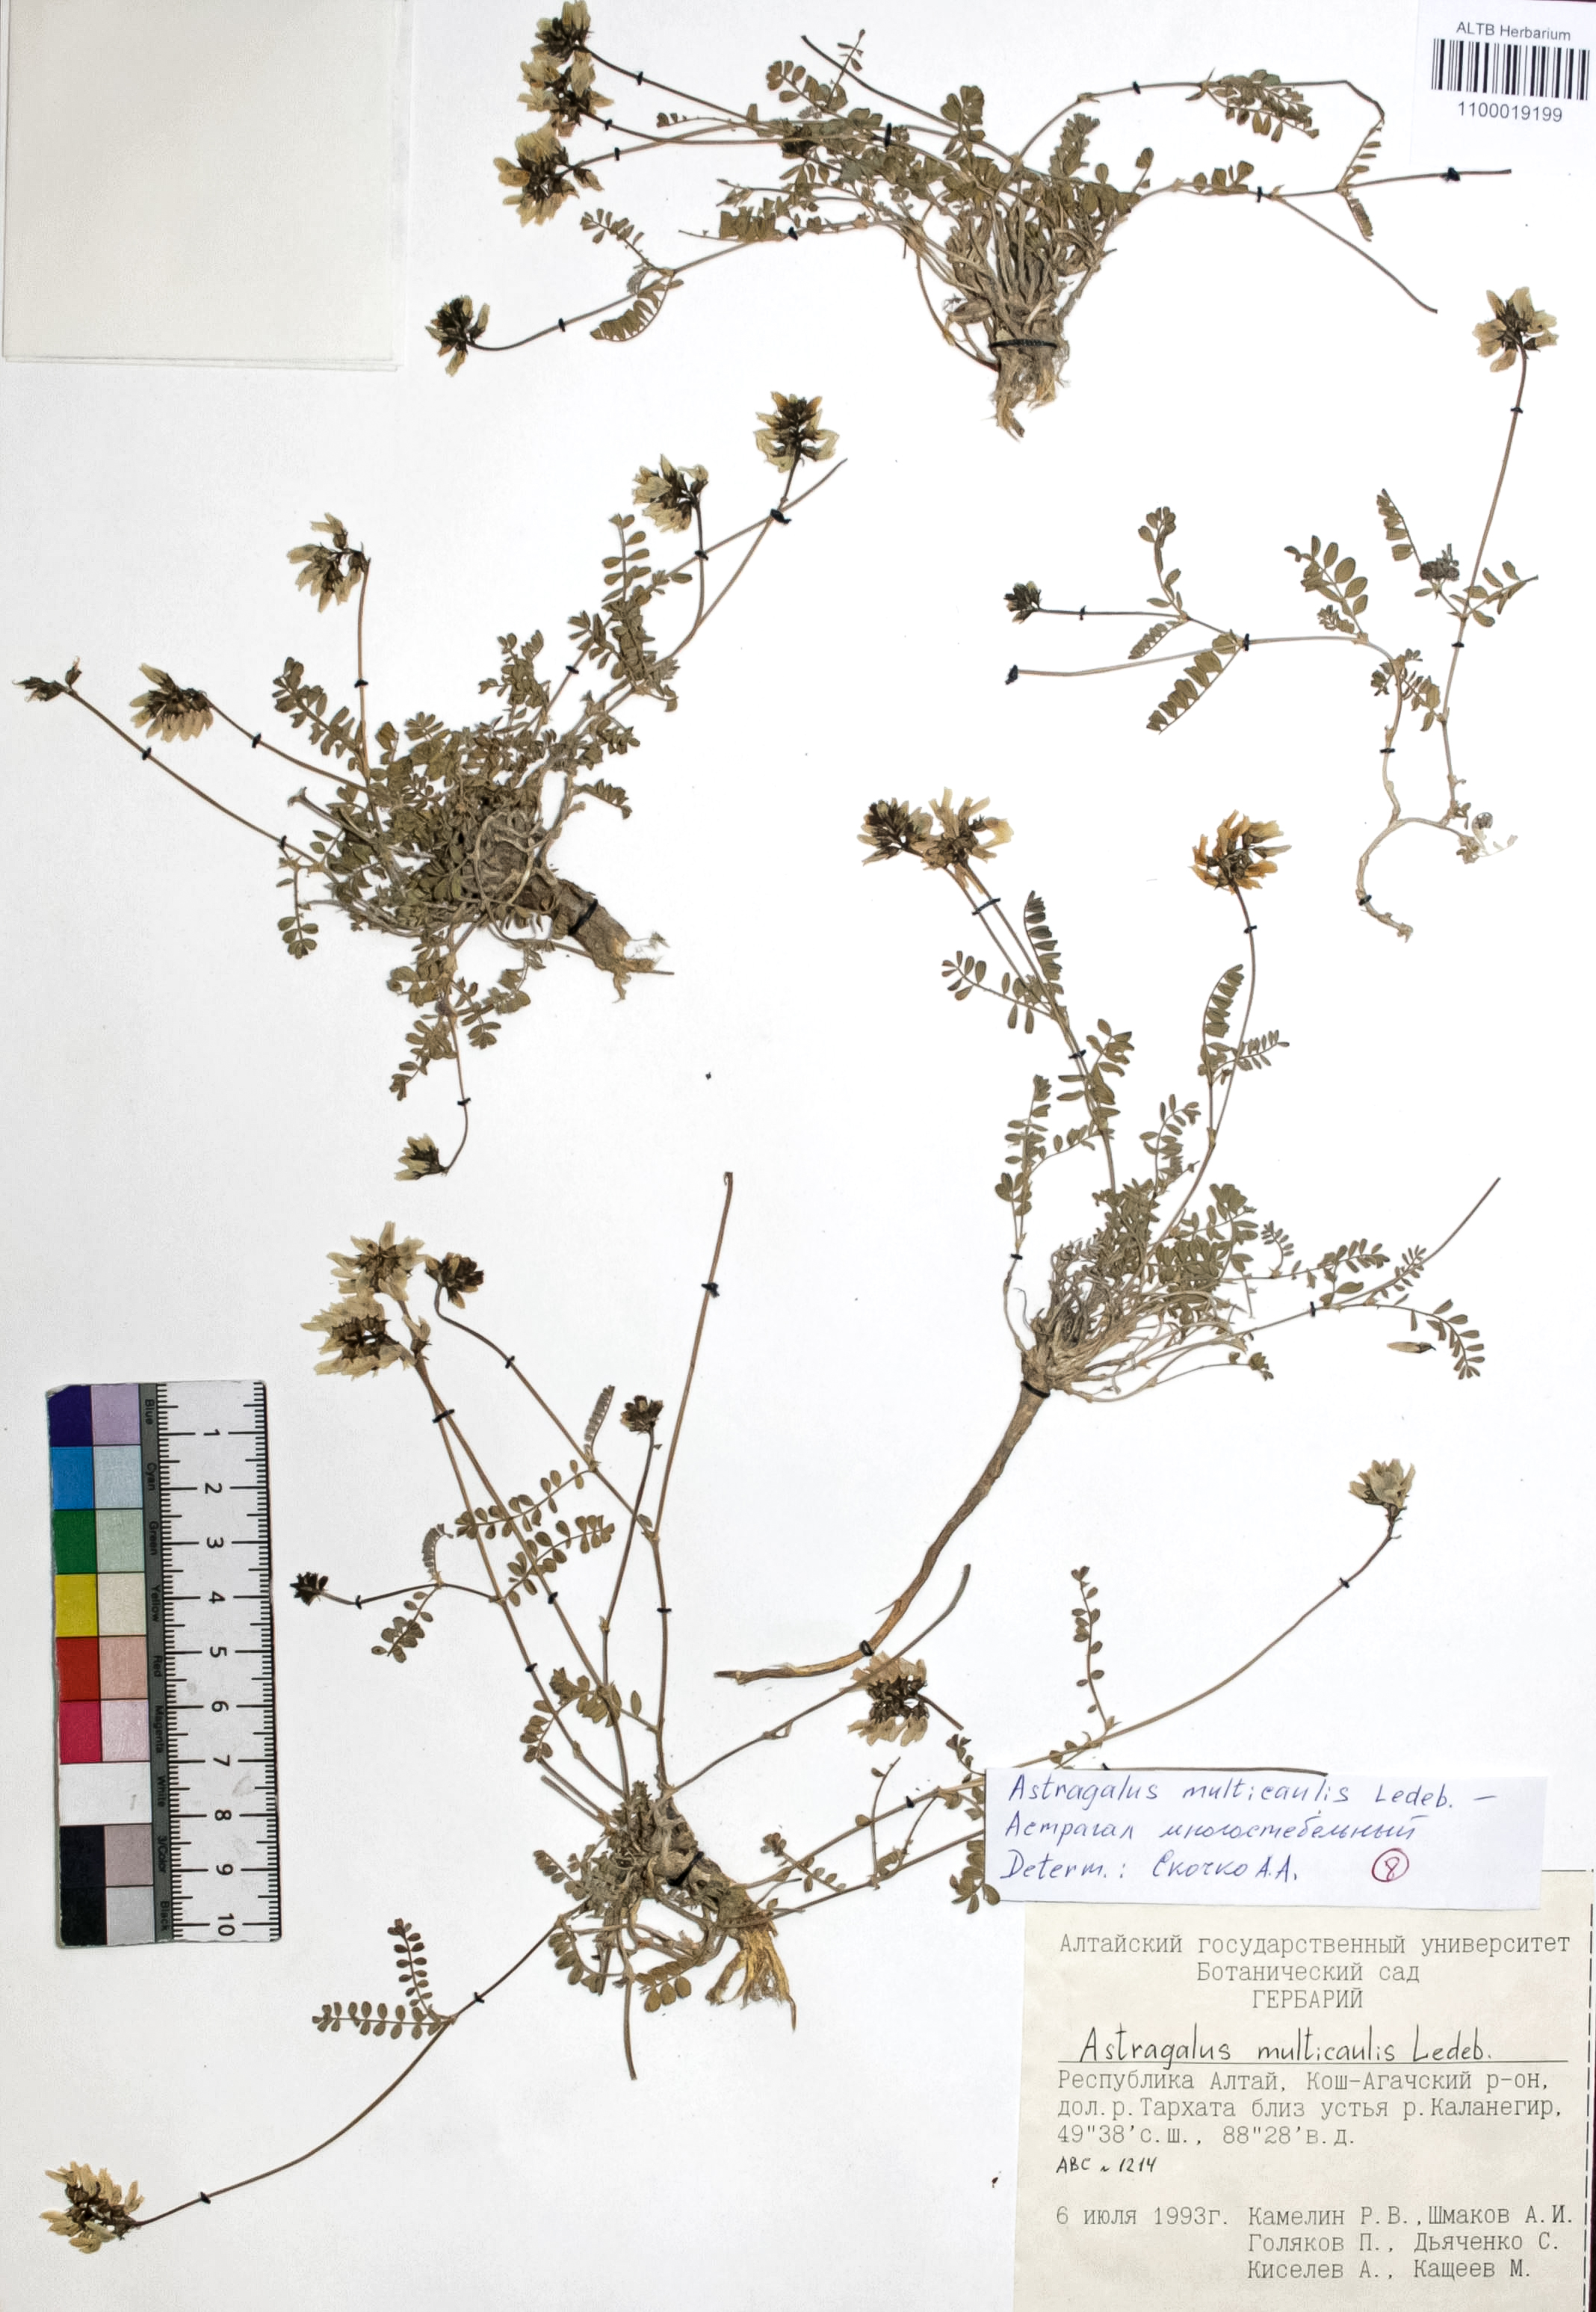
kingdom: Plantae
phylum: Tracheophyta
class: Magnoliopsida
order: Fabales
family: Fabaceae
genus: Astragalus
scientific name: Astragalus leptostachys
